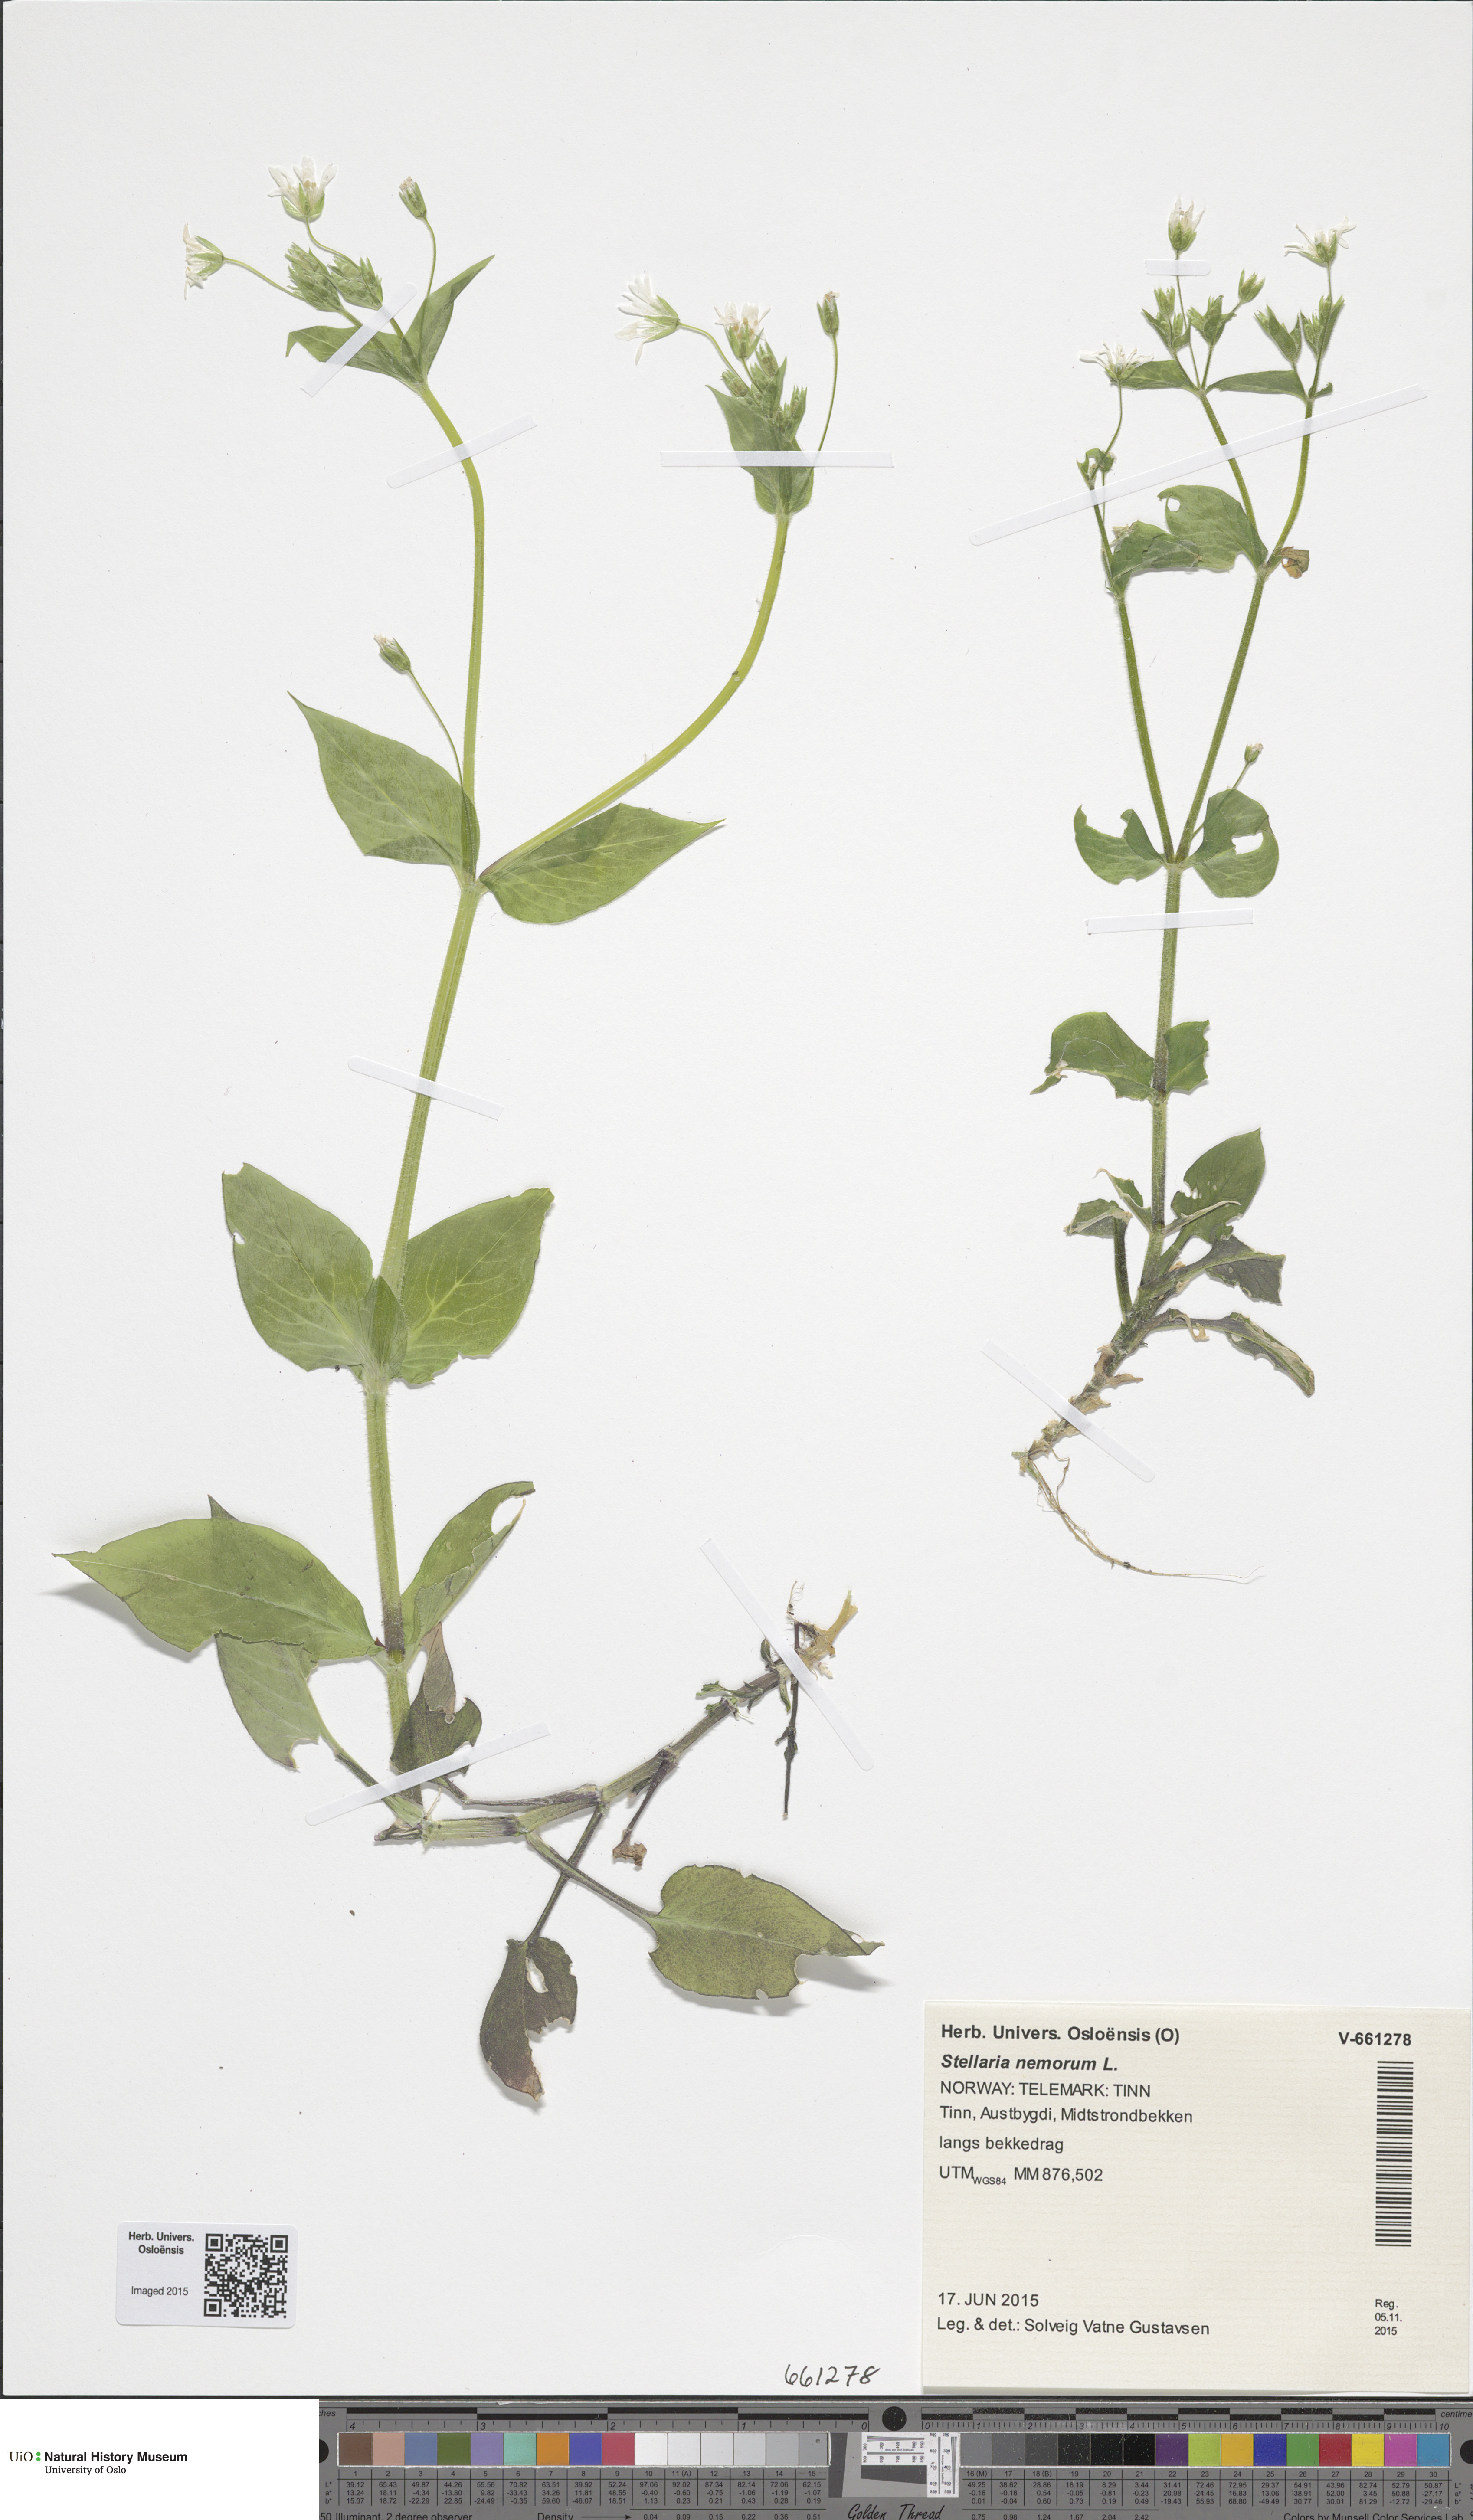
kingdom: Plantae
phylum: Tracheophyta
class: Magnoliopsida
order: Caryophyllales
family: Caryophyllaceae
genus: Stellaria
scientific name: Stellaria nemorum
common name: Wood stitchwort
